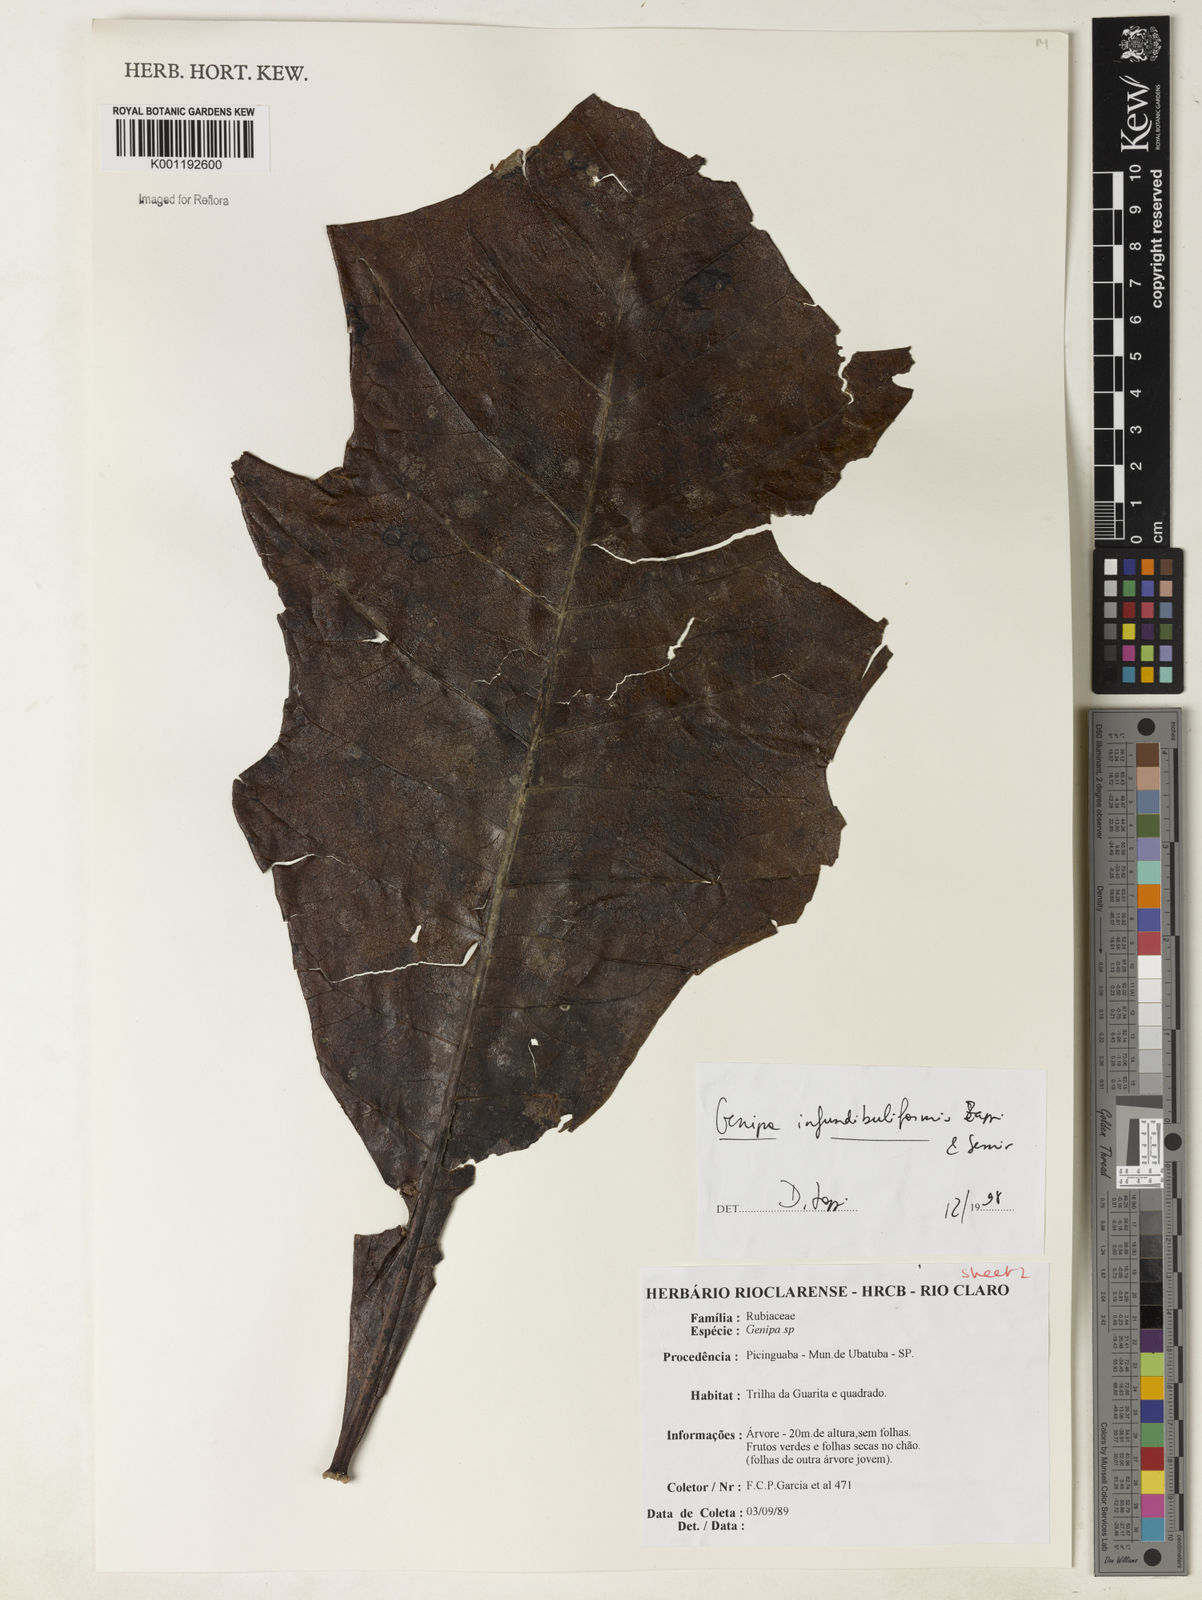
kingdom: Plantae
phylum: Tracheophyta
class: Magnoliopsida
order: Gentianales
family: Rubiaceae
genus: Genipa
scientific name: Genipa infundibuliformis
